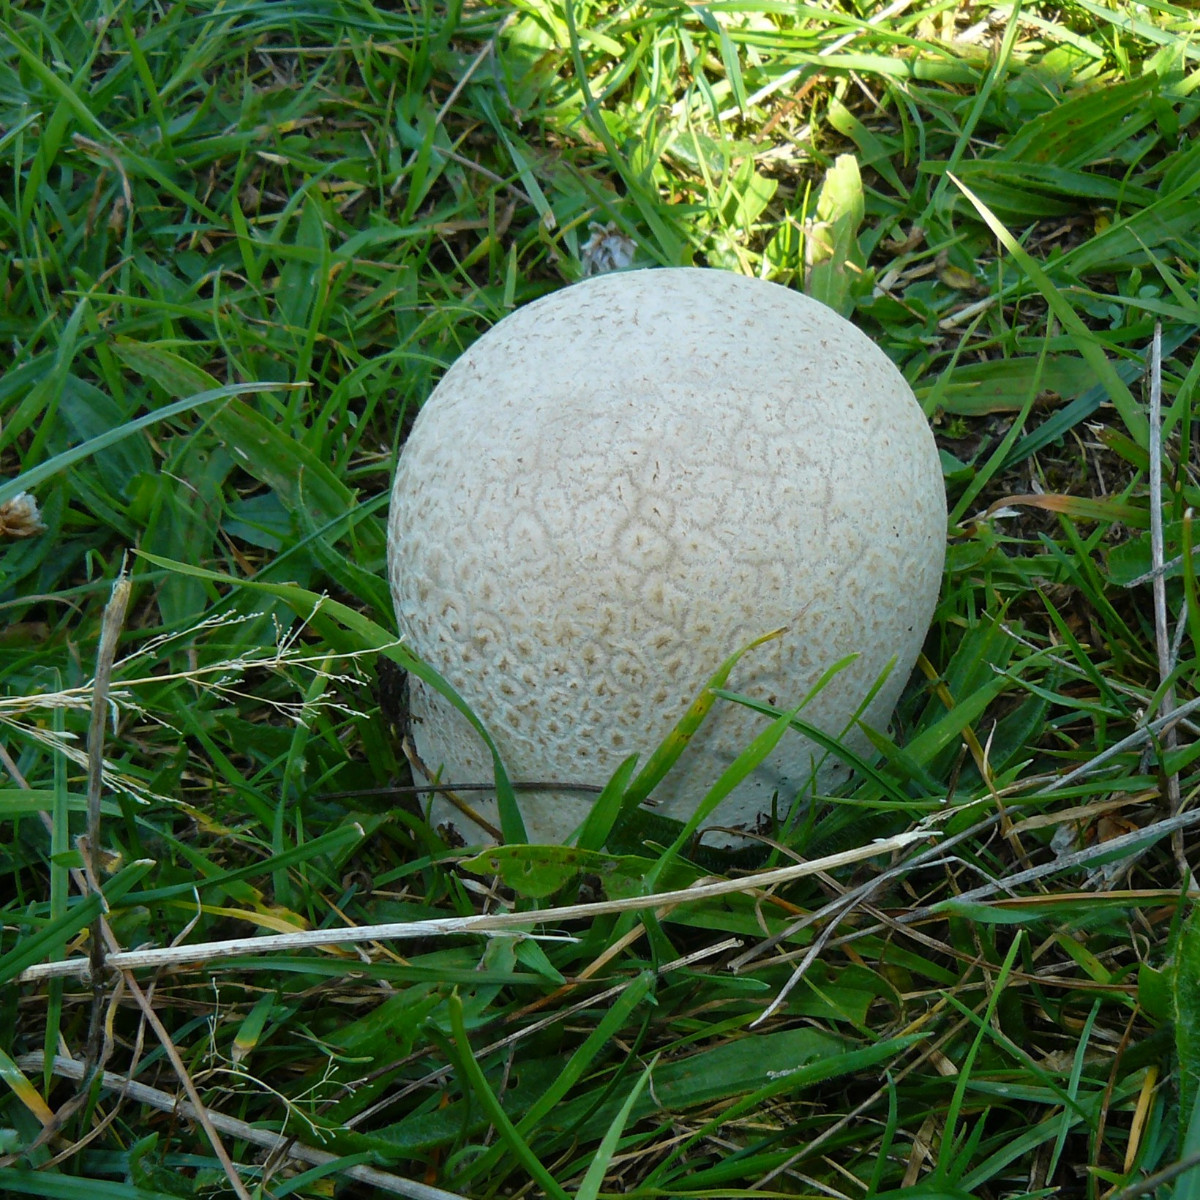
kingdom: Fungi
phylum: Basidiomycota
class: Agaricomycetes
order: Agaricales
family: Lycoperdaceae
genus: Bovistella
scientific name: Bovistella utriformis
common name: skællet støvbold
